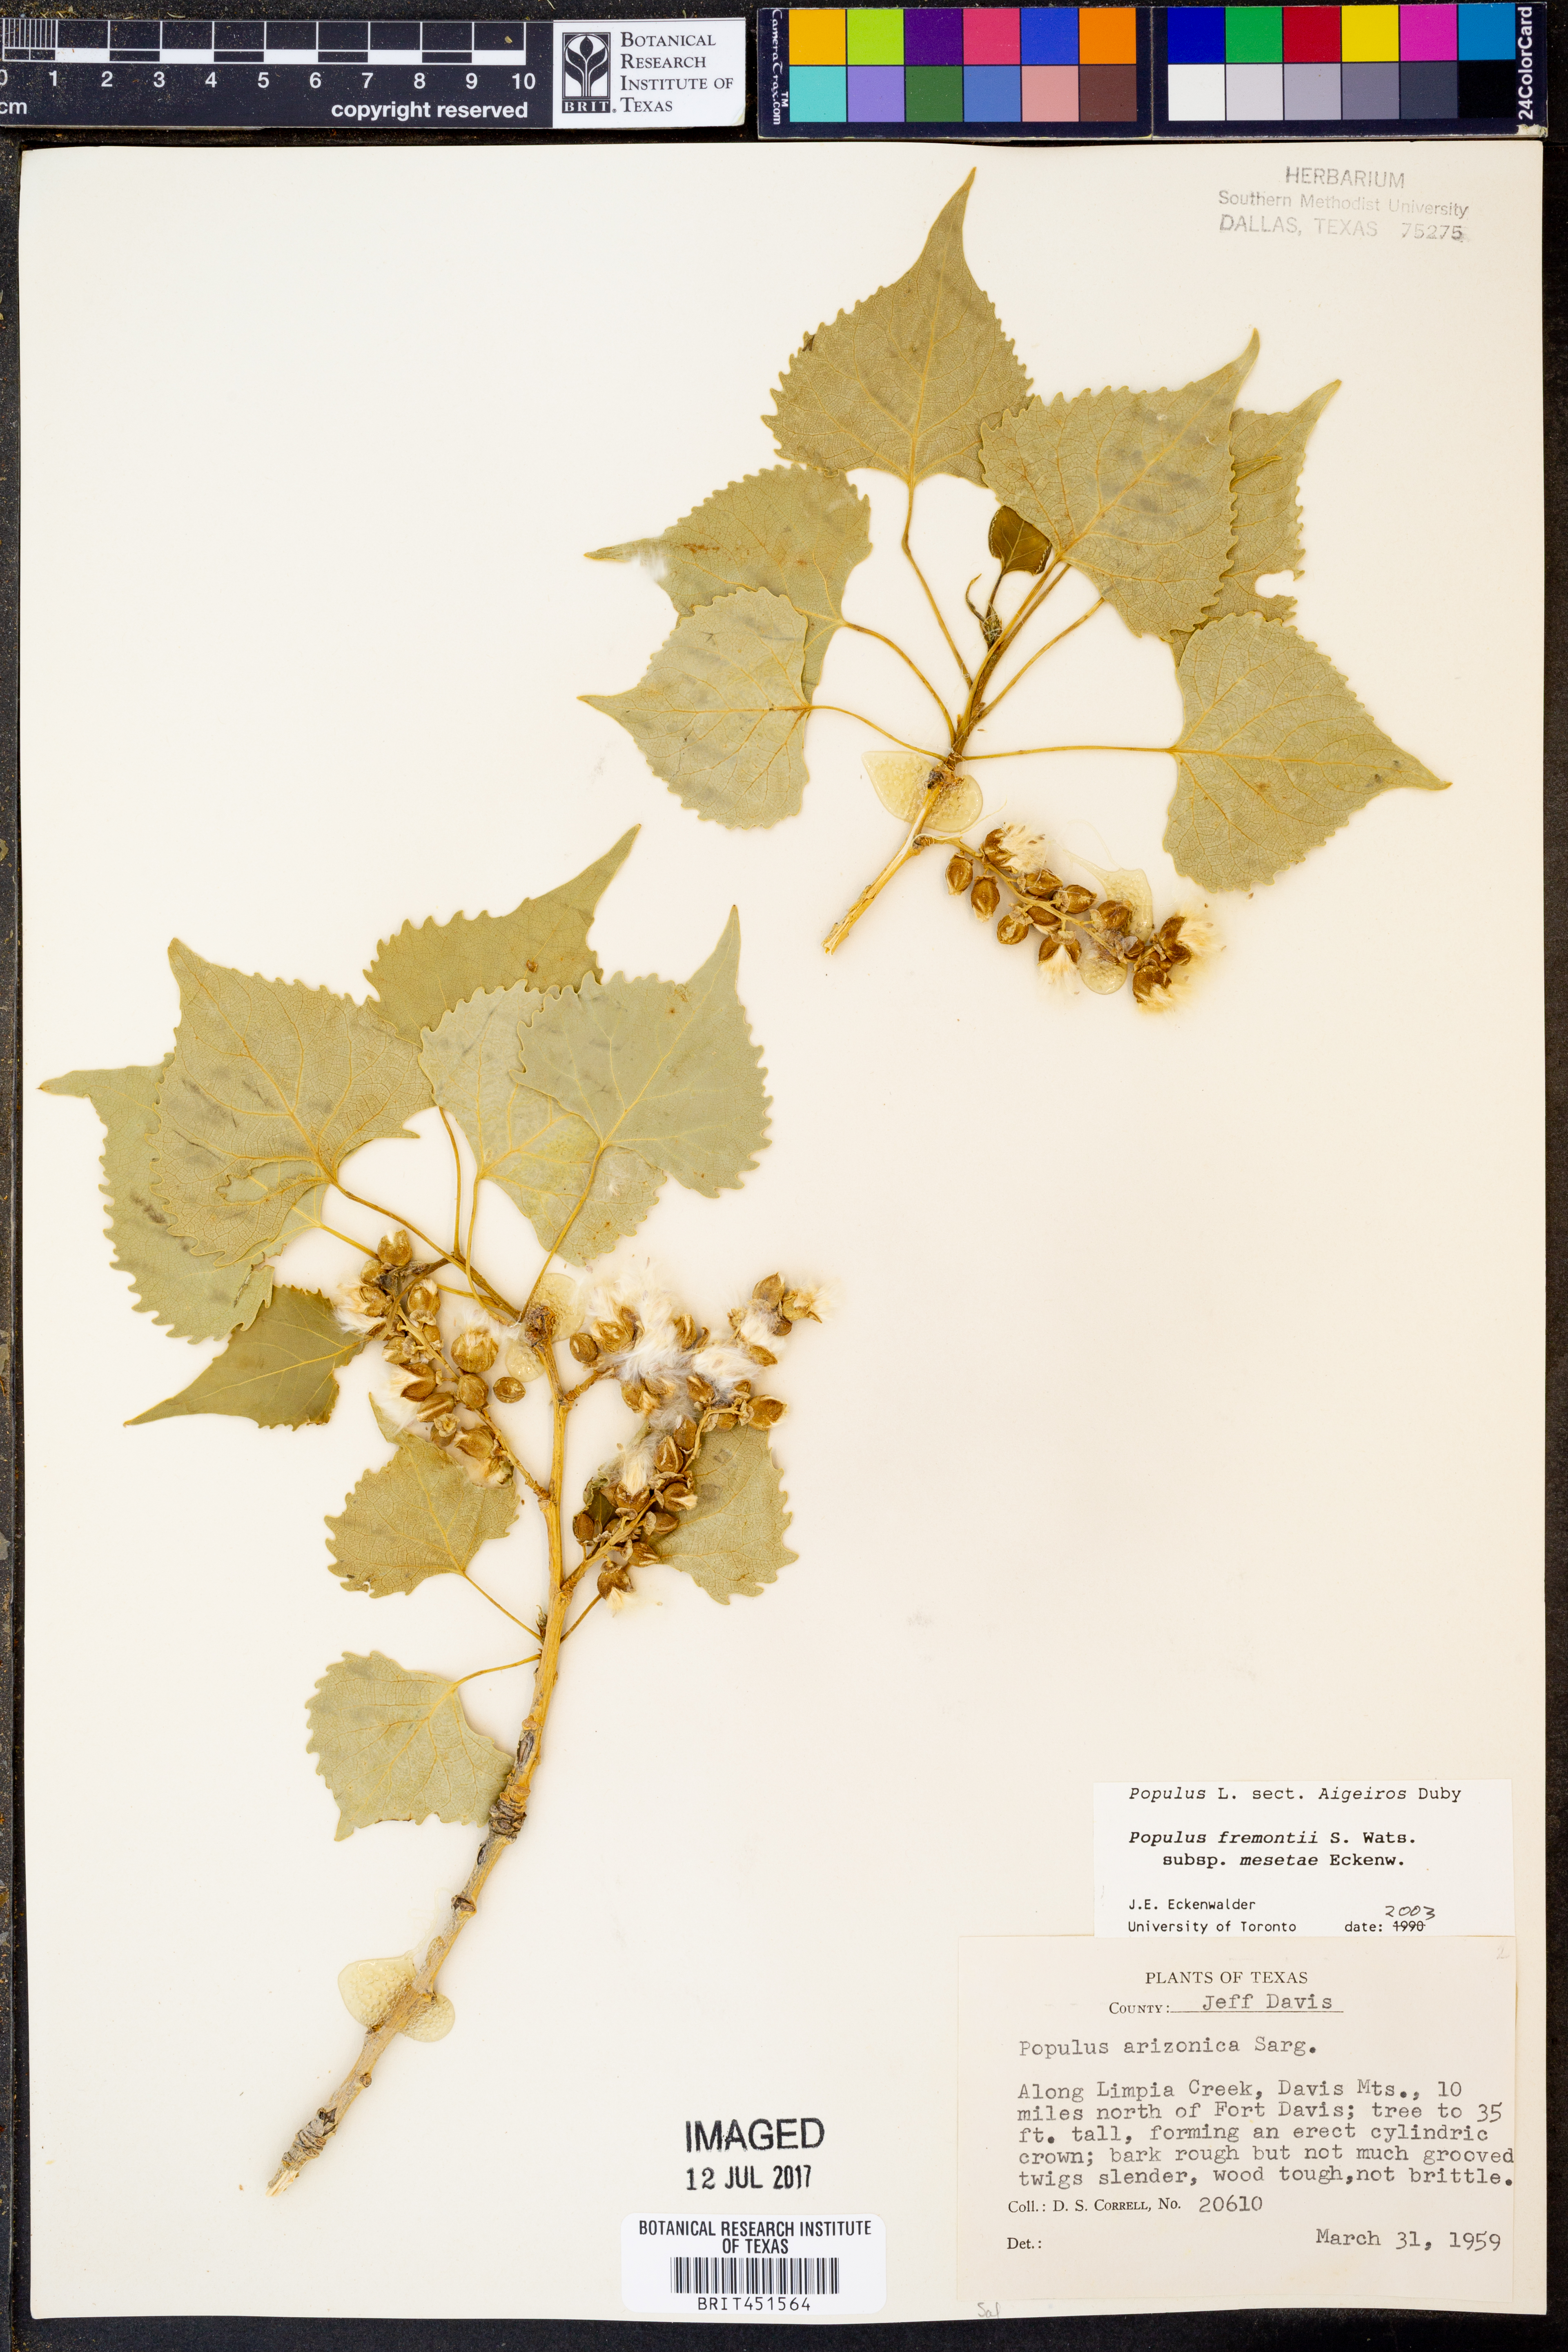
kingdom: Plantae
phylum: Tracheophyta
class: Magnoliopsida
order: Malpighiales
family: Salicaceae
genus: Populus
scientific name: Populus fremontii
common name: Fremont's cottonwood
